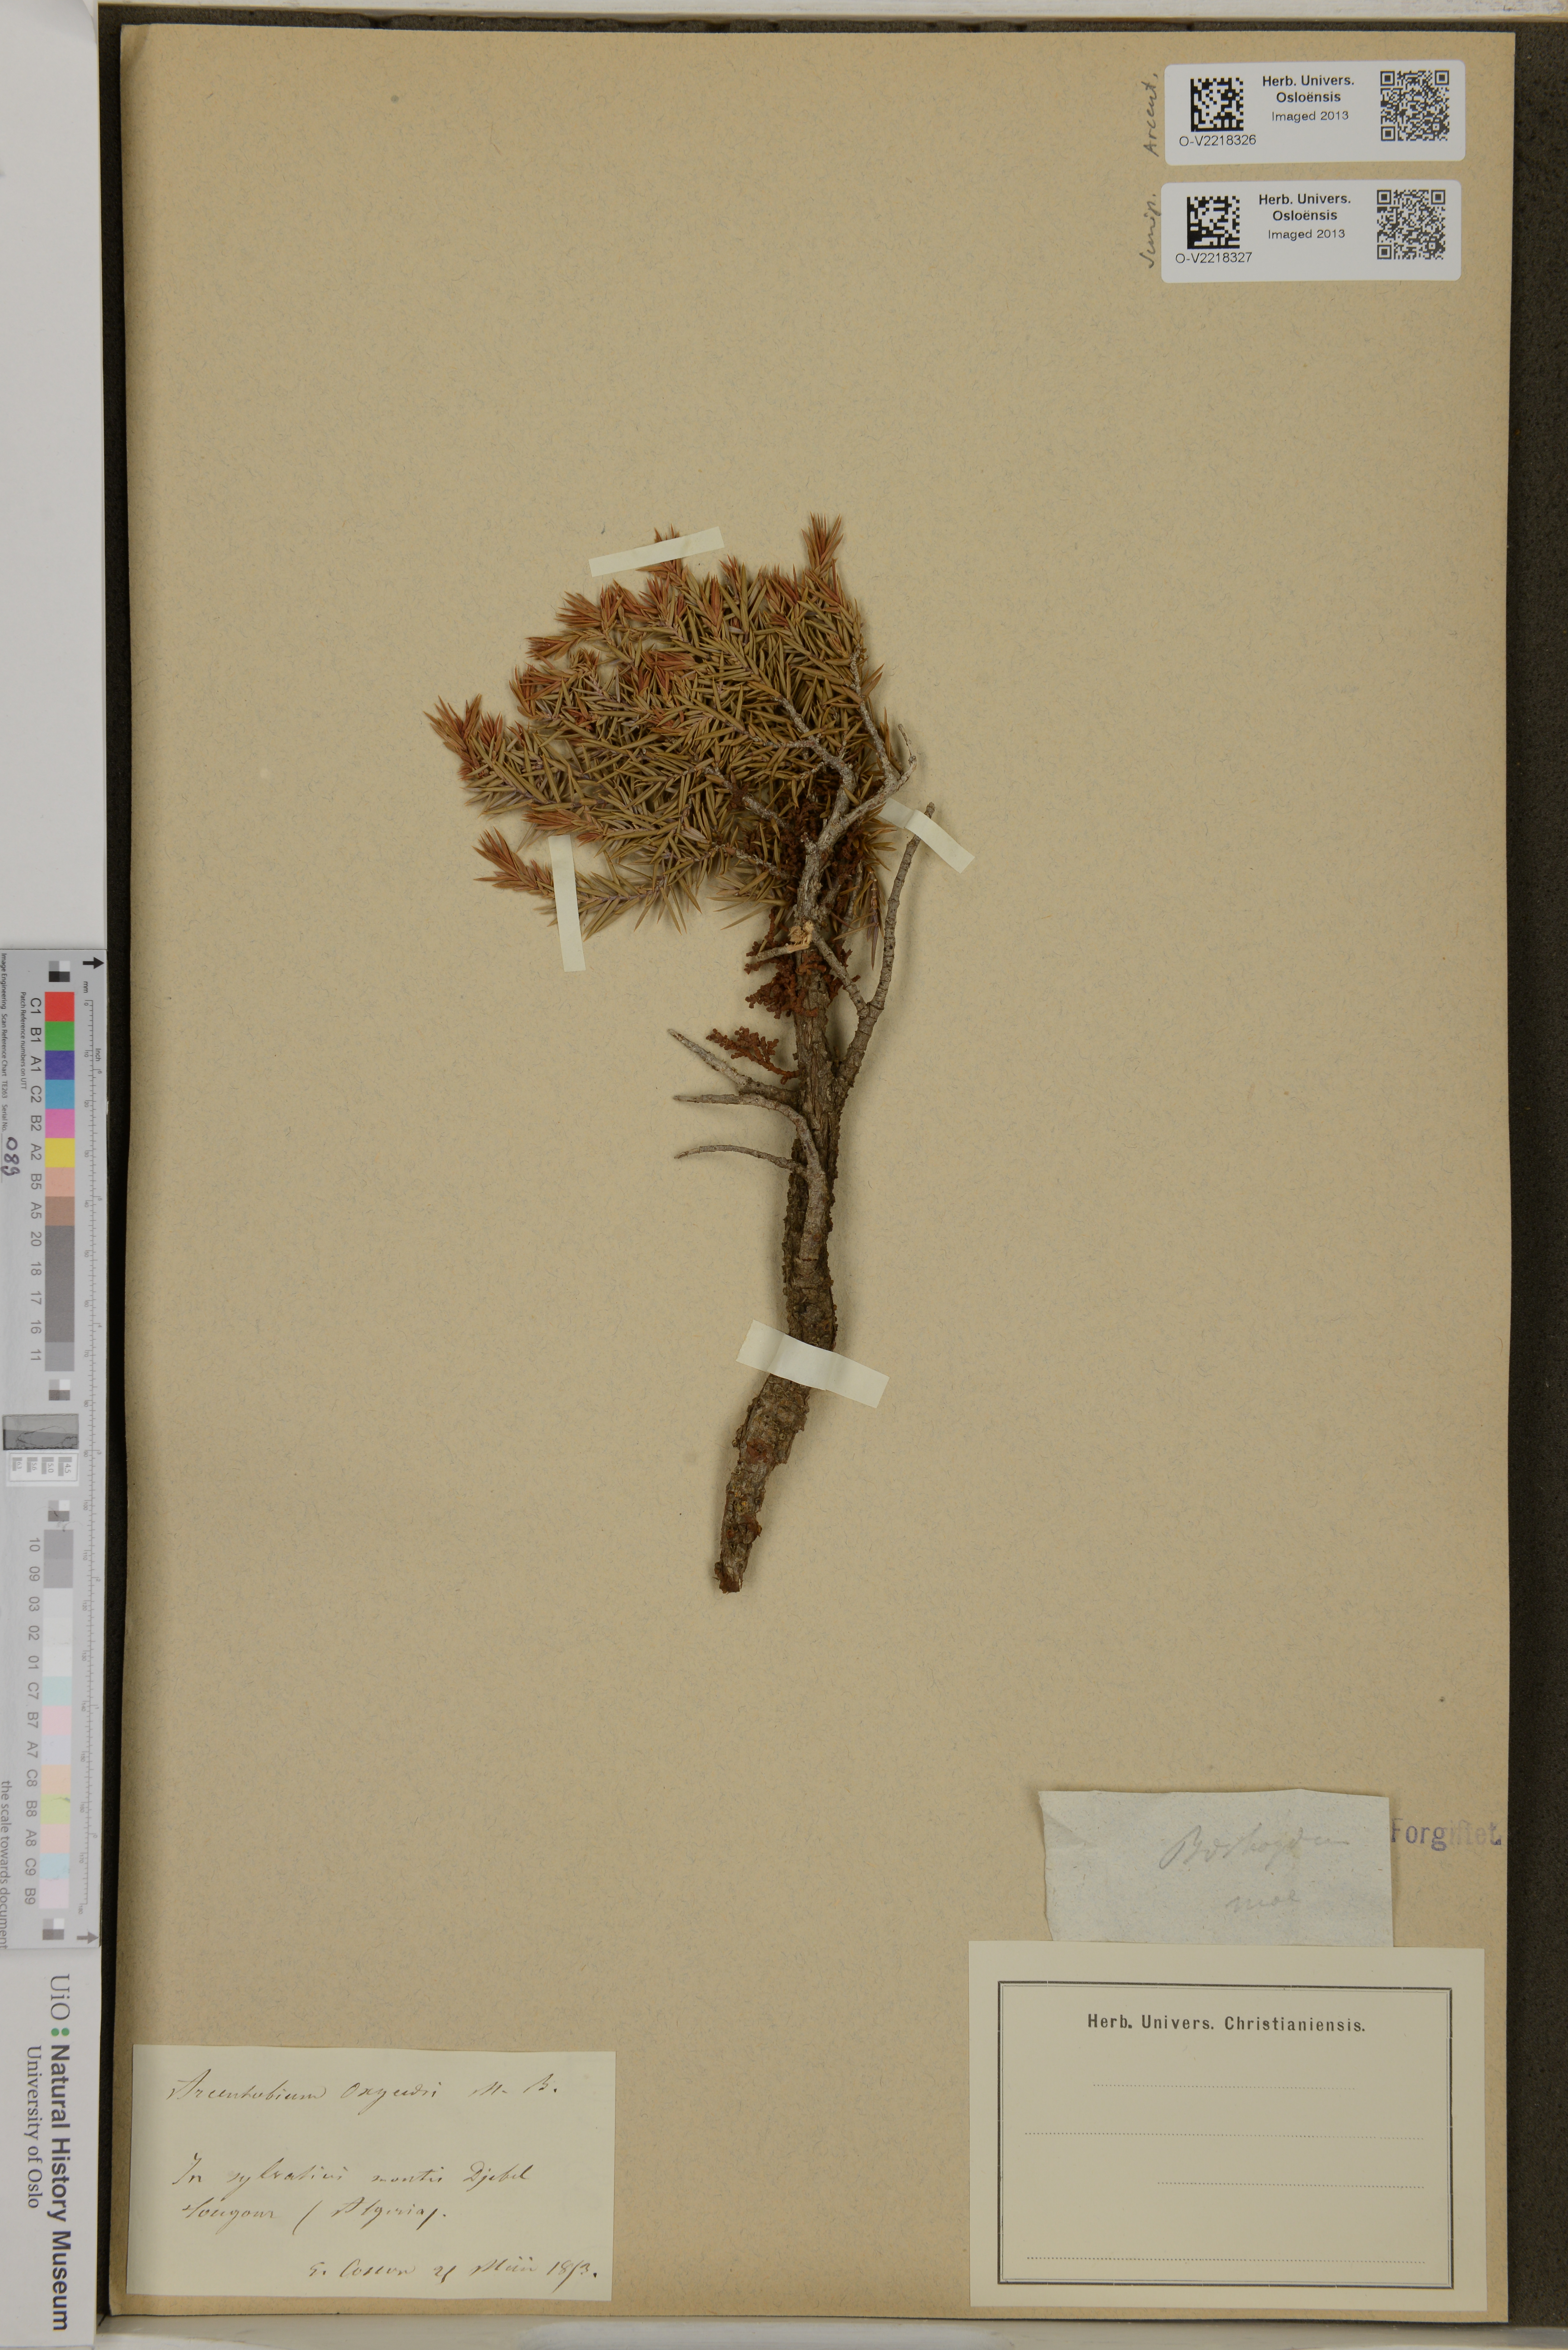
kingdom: Plantae
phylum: Tracheophyta
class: Magnoliopsida
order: Santalales
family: Viscaceae
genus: Arceuthobium
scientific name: Arceuthobium oxycedri
